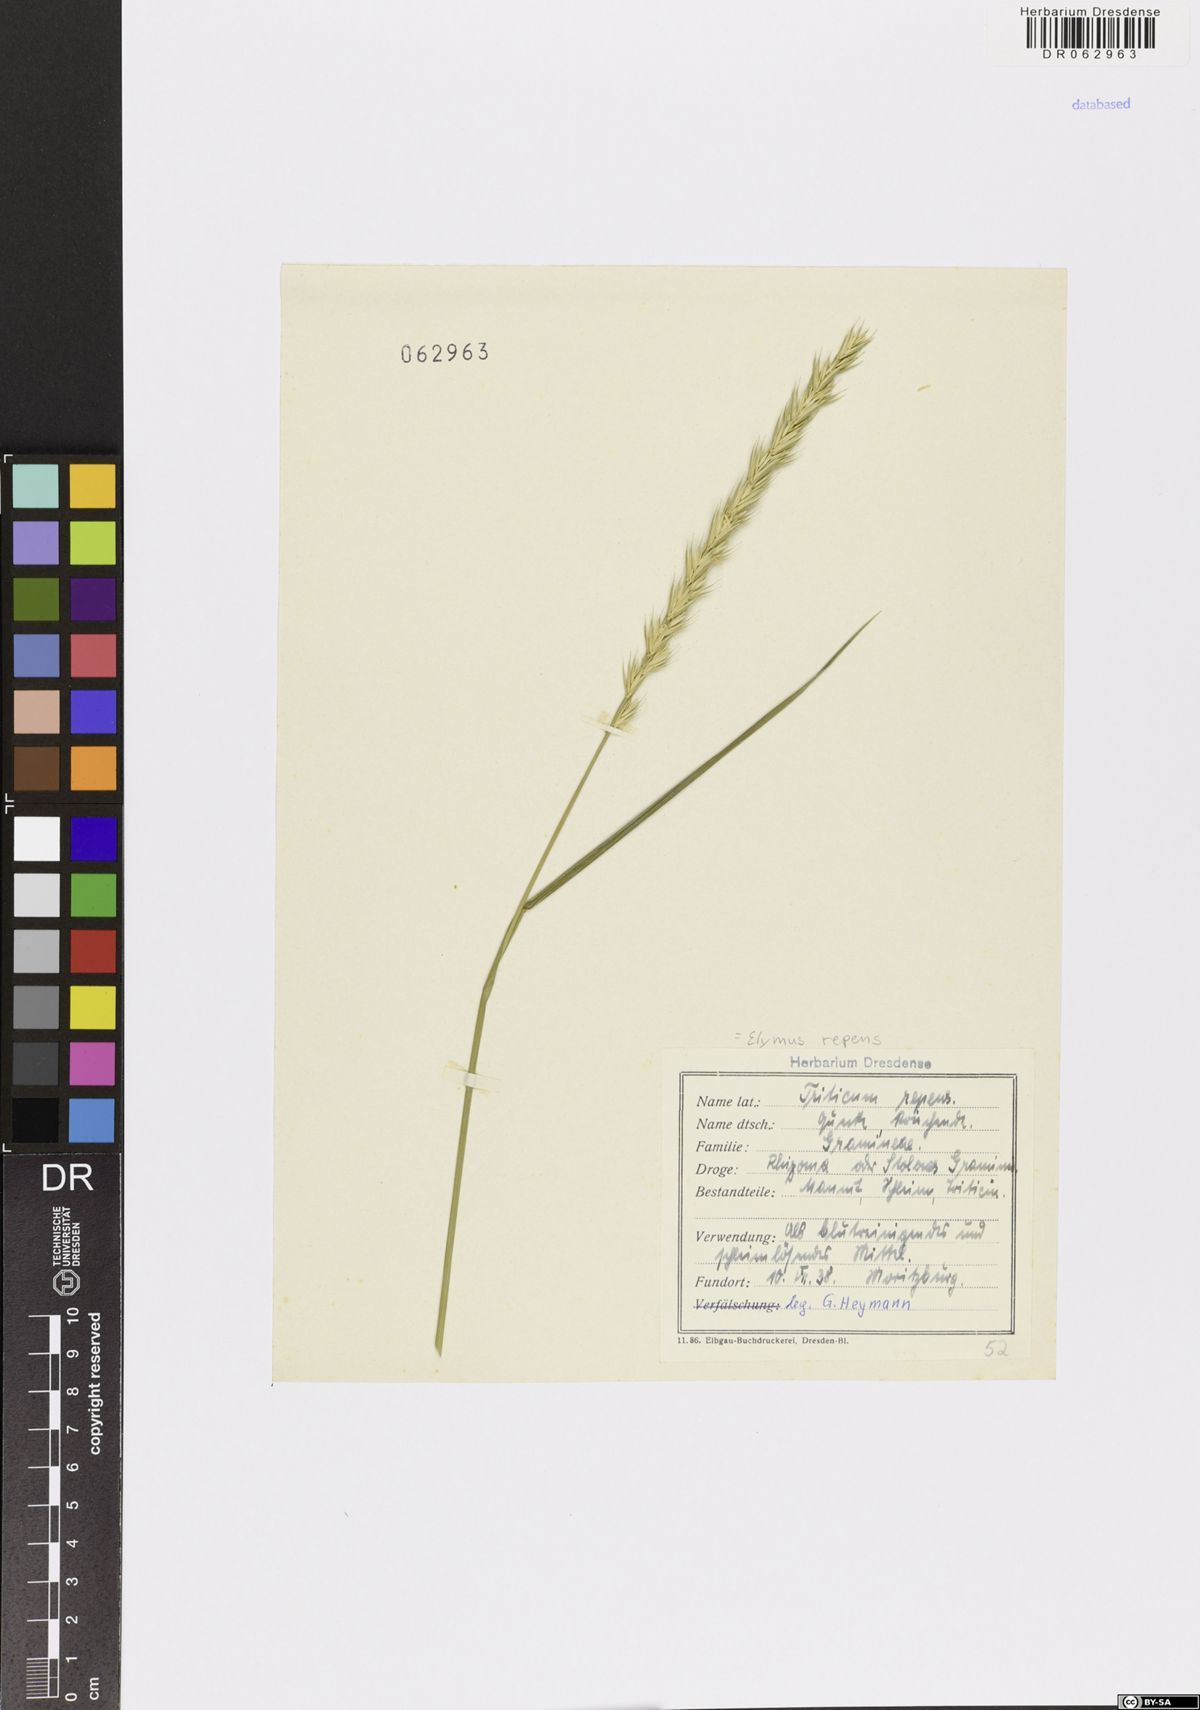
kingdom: Plantae
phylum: Tracheophyta
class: Liliopsida
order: Poales
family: Poaceae
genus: Elymus
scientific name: Elymus repens
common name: Quackgrass
